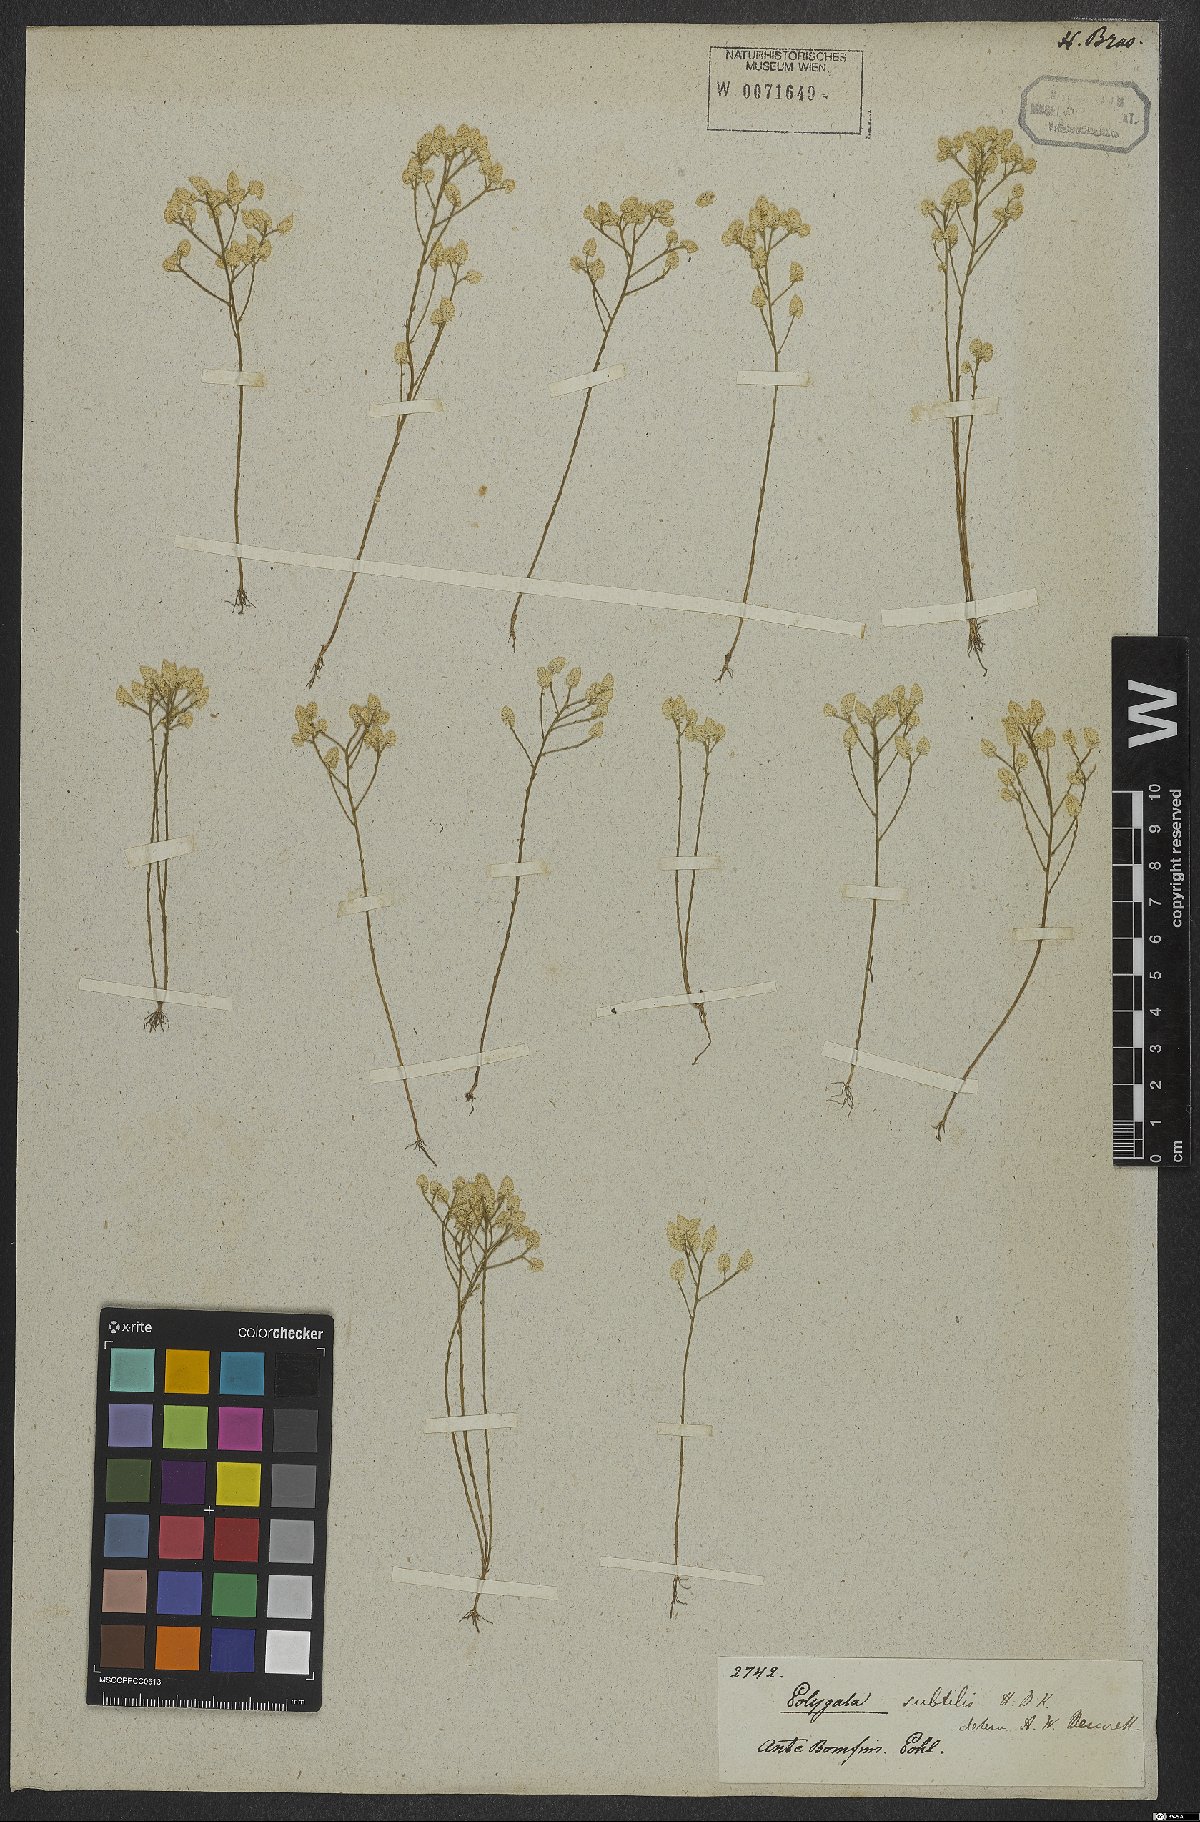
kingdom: Plantae
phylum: Tracheophyta
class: Magnoliopsida
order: Fabales
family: Polygalaceae
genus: Polygala
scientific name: Polygala subtilis
